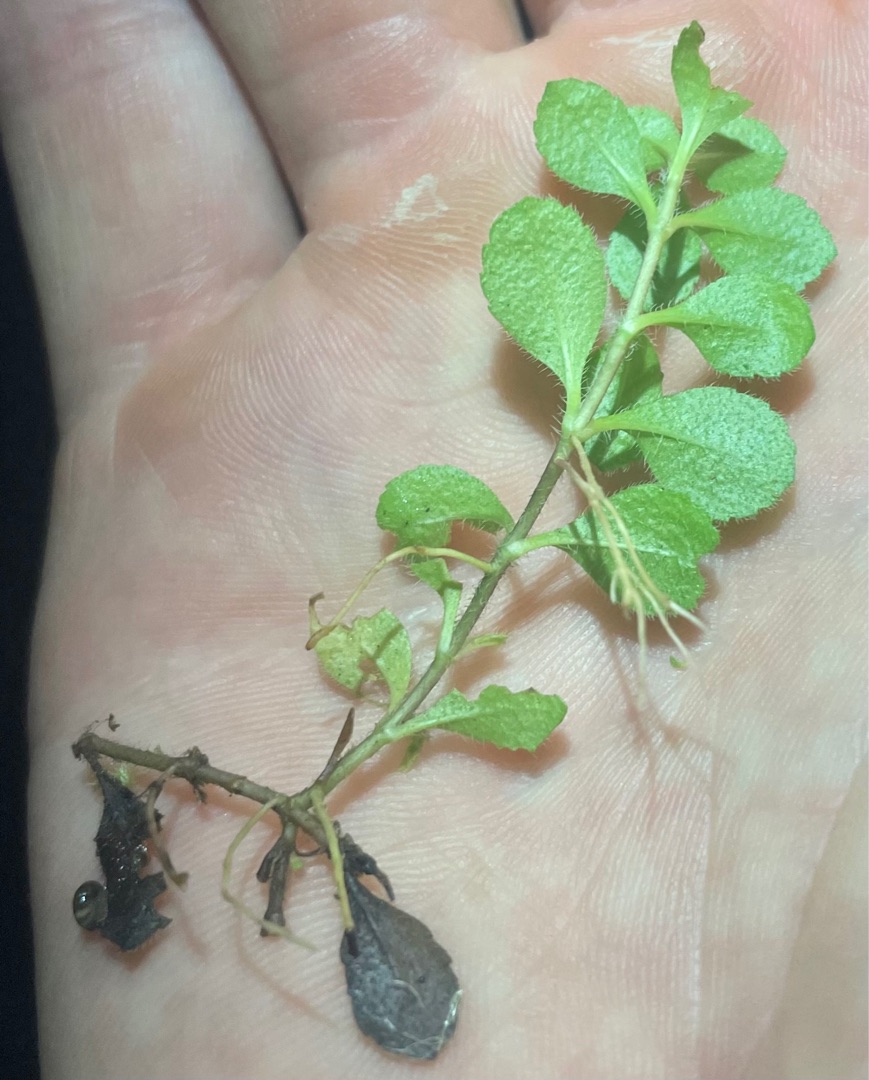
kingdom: Plantae
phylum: Tracheophyta
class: Magnoliopsida
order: Lamiales
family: Plantaginaceae
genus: Veronica
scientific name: Veronica officinalis
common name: Læge-ærenpris
